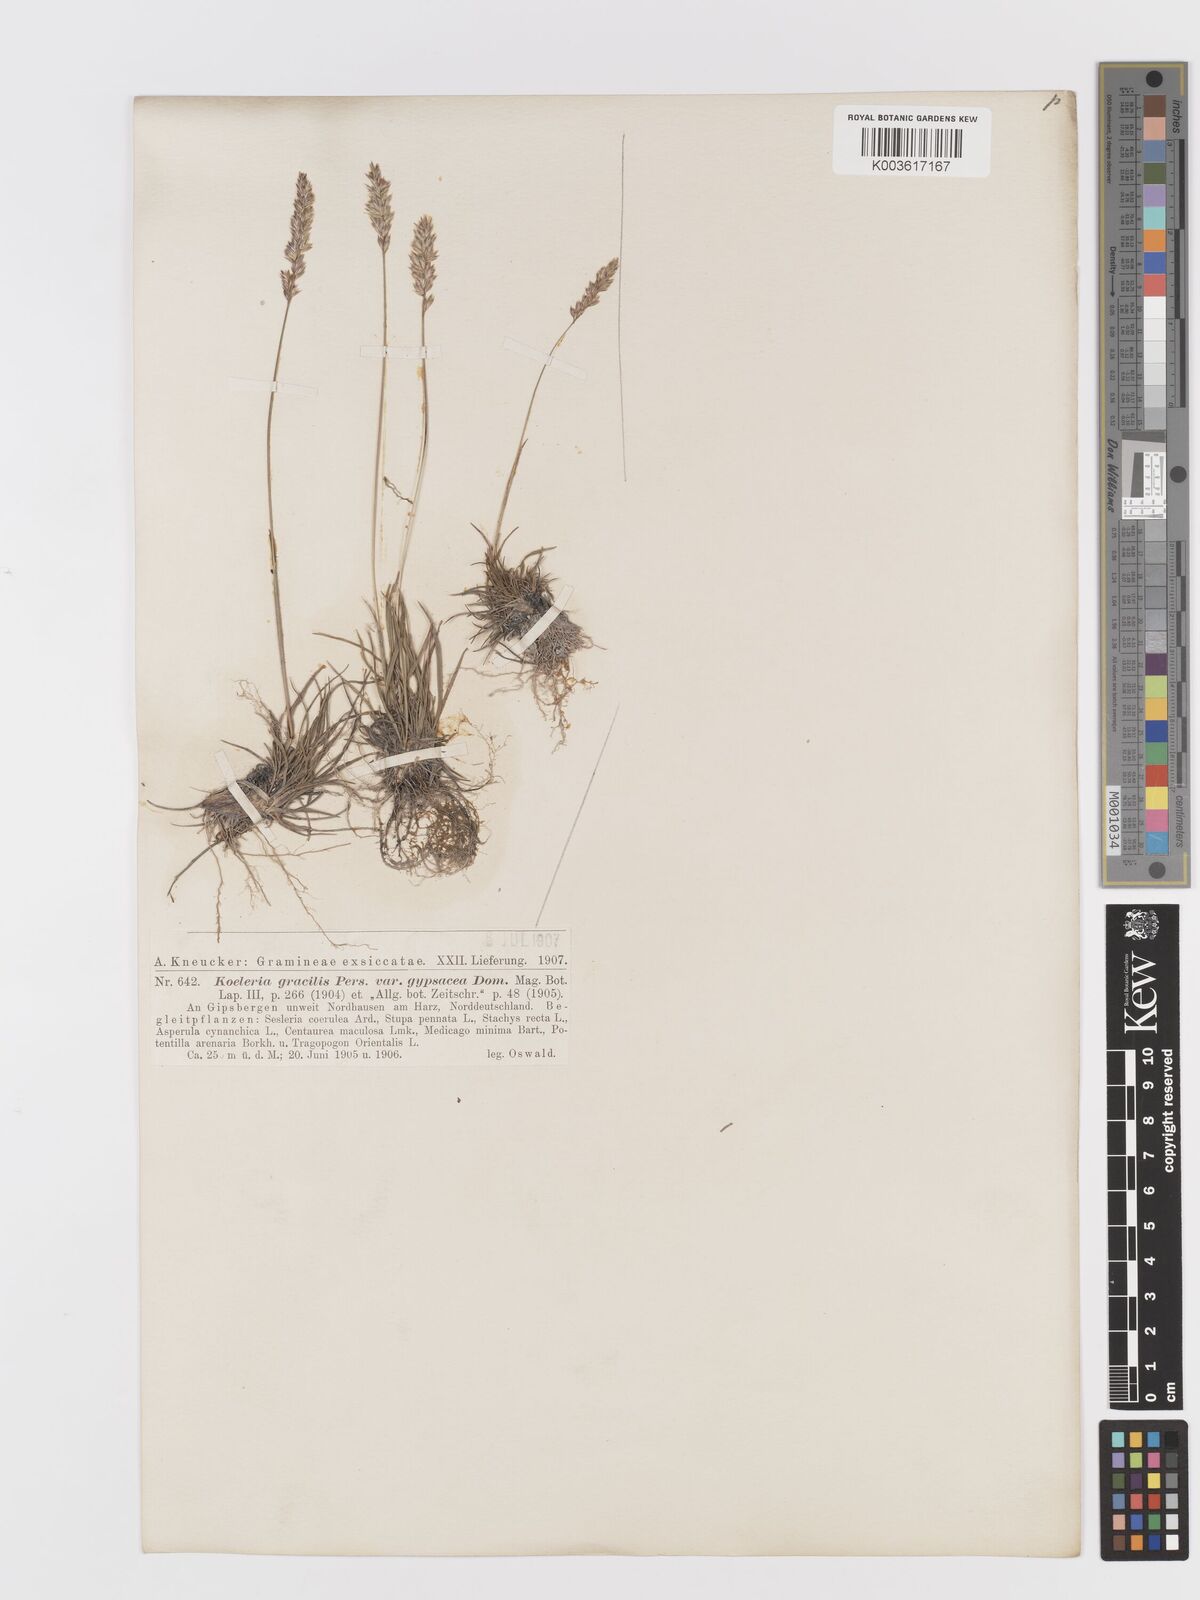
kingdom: Plantae
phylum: Tracheophyta
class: Liliopsida
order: Poales
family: Poaceae
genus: Koeleria
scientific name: Koeleria macrantha
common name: Crested hair-grass
